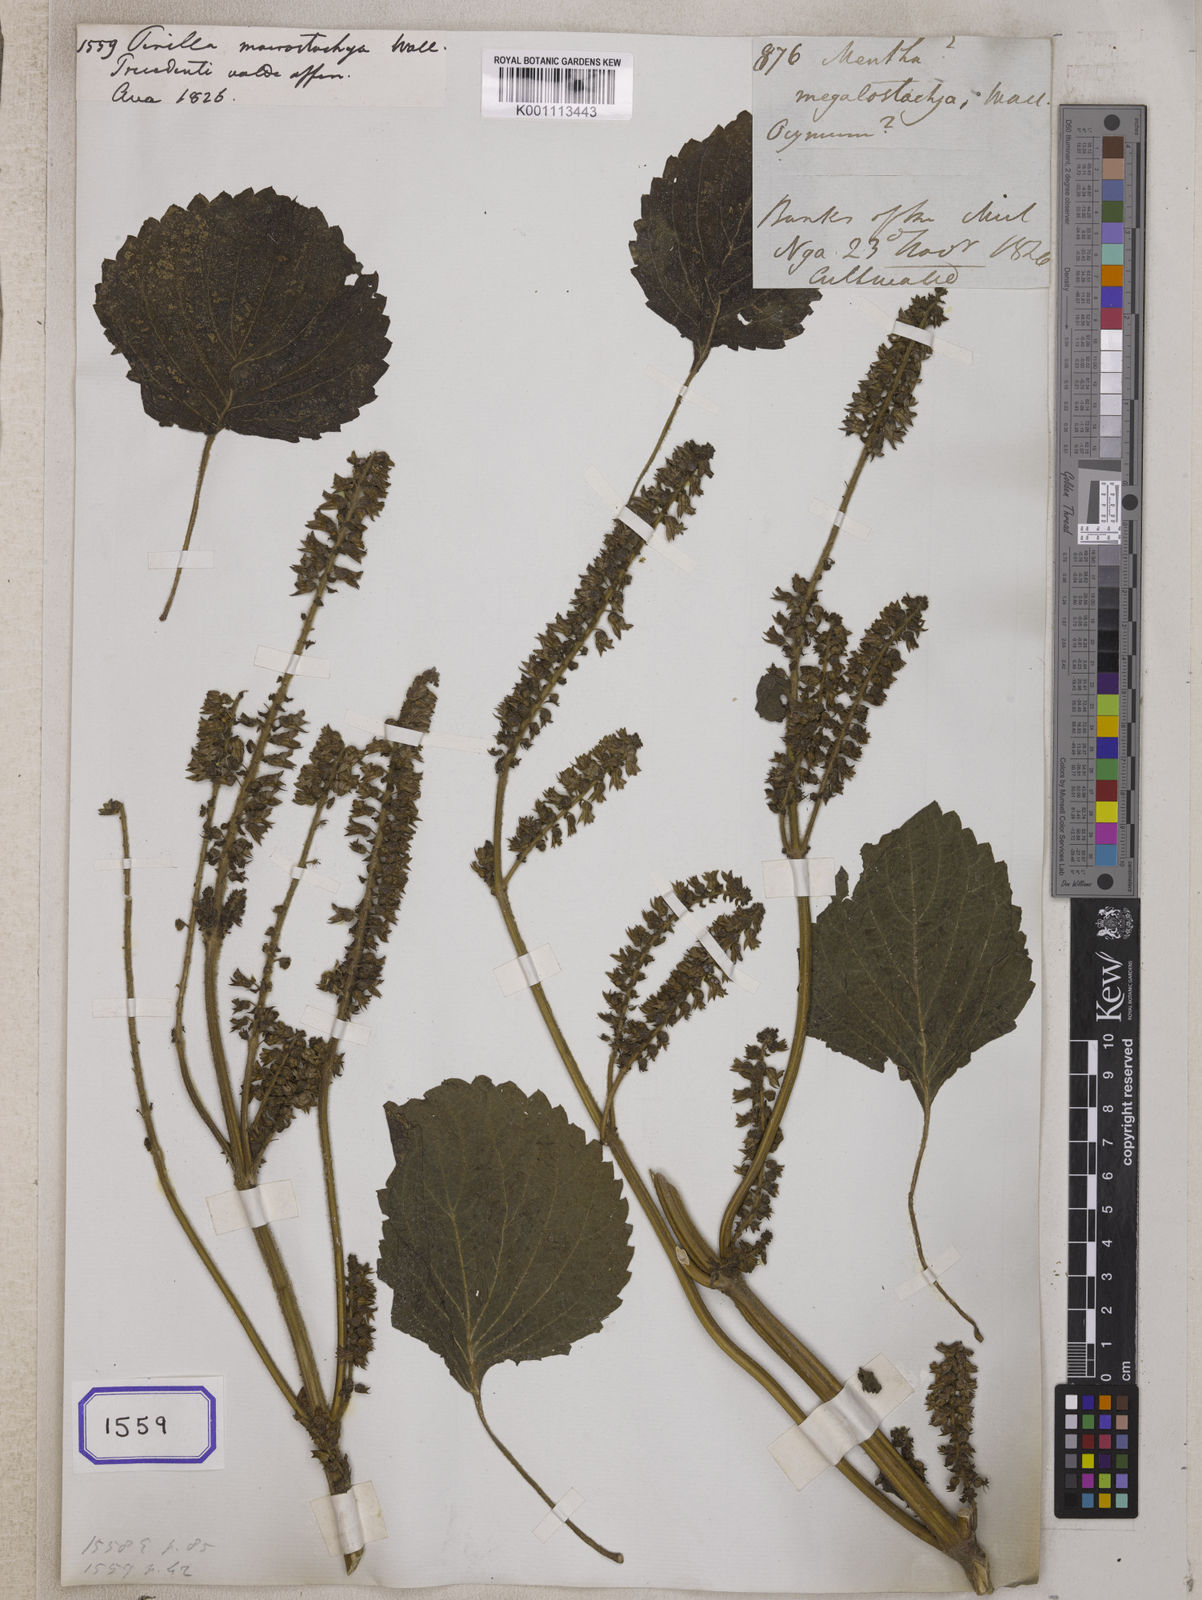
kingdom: Plantae
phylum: Tracheophyta
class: Magnoliopsida
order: Lamiales
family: Lamiaceae
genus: Perilla
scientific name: Perilla
